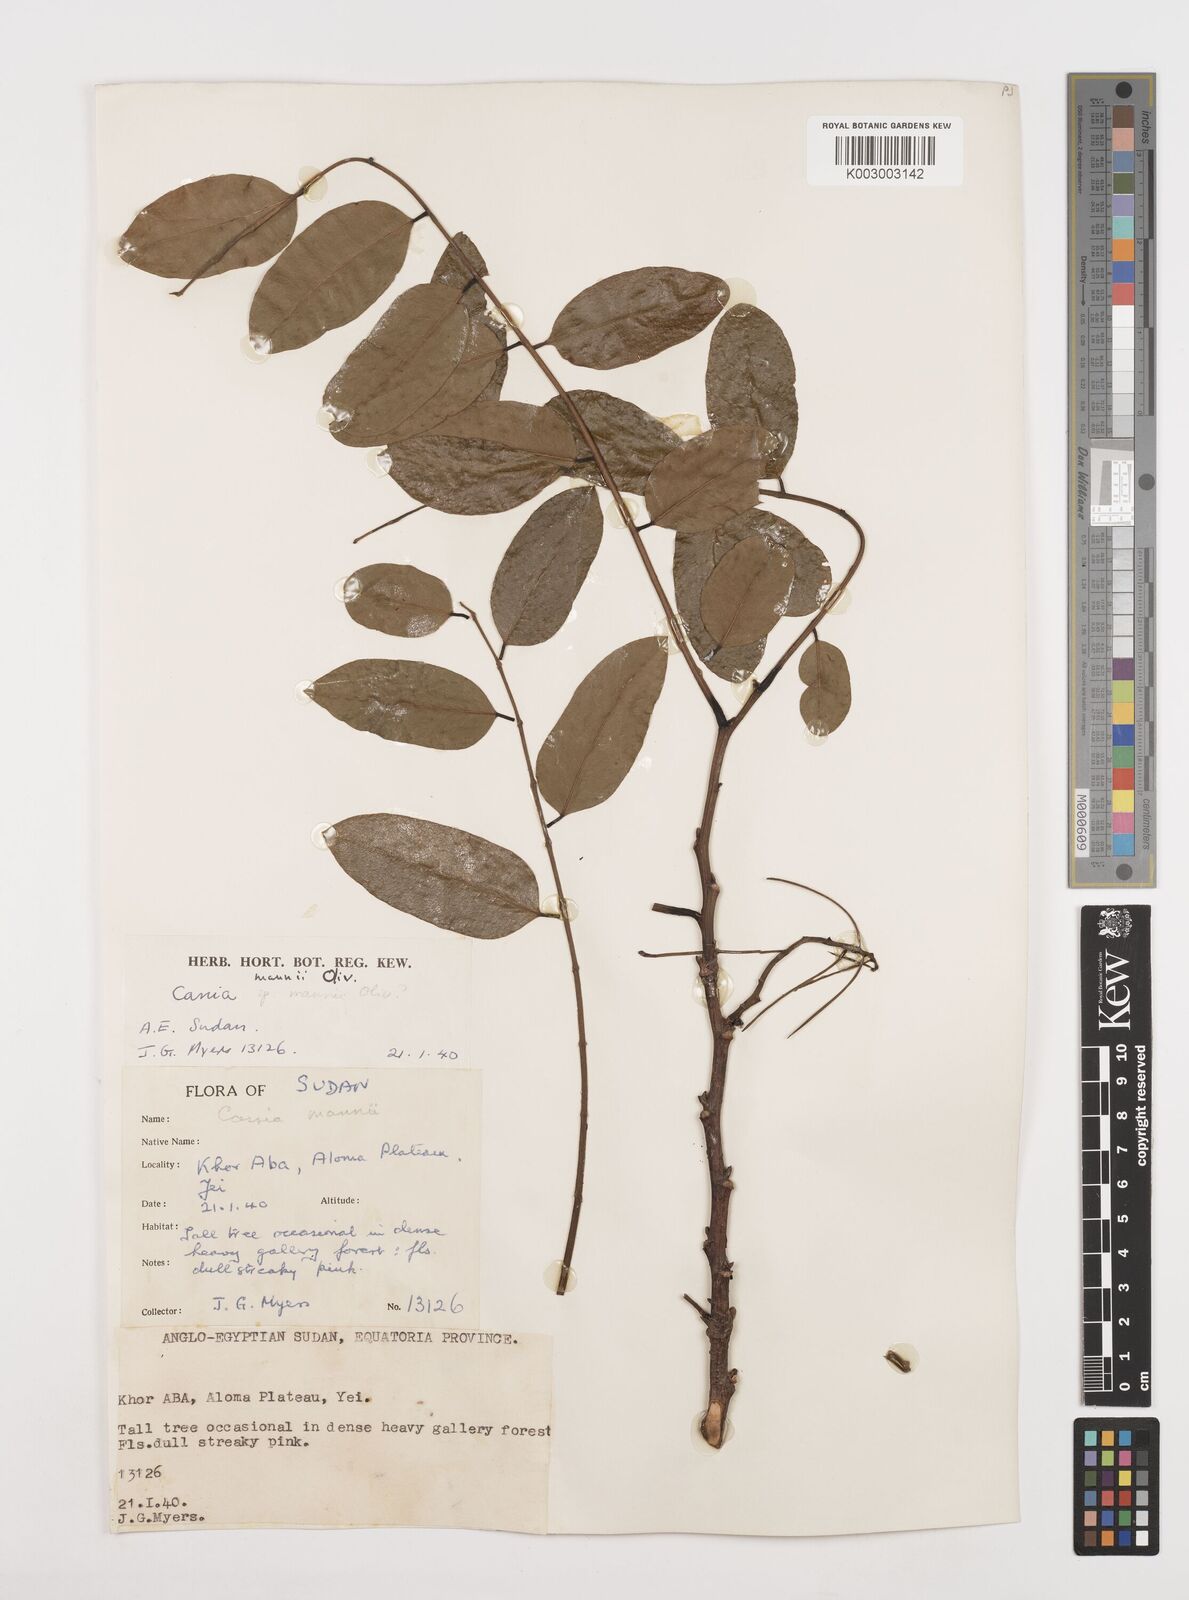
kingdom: Plantae
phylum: Tracheophyta
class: Magnoliopsida
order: Fabales
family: Fabaceae
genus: Cassia
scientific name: Cassia mannii
